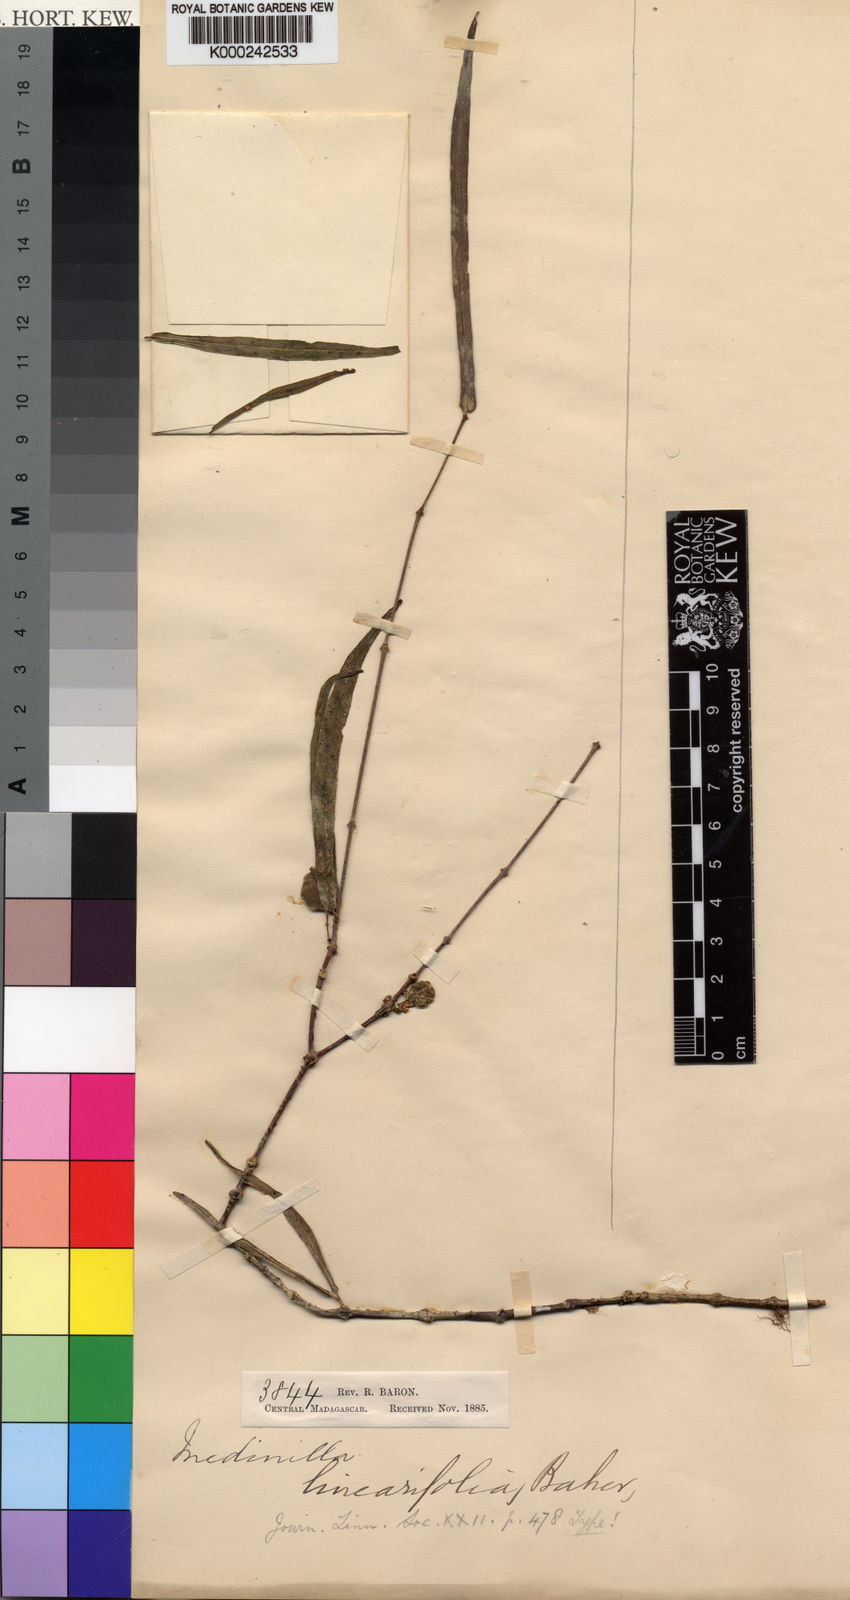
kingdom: Plantae
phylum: Tracheophyta
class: Magnoliopsida
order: Myrtales
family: Melastomataceae
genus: Medinilla
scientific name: Medinilla linearifolia
